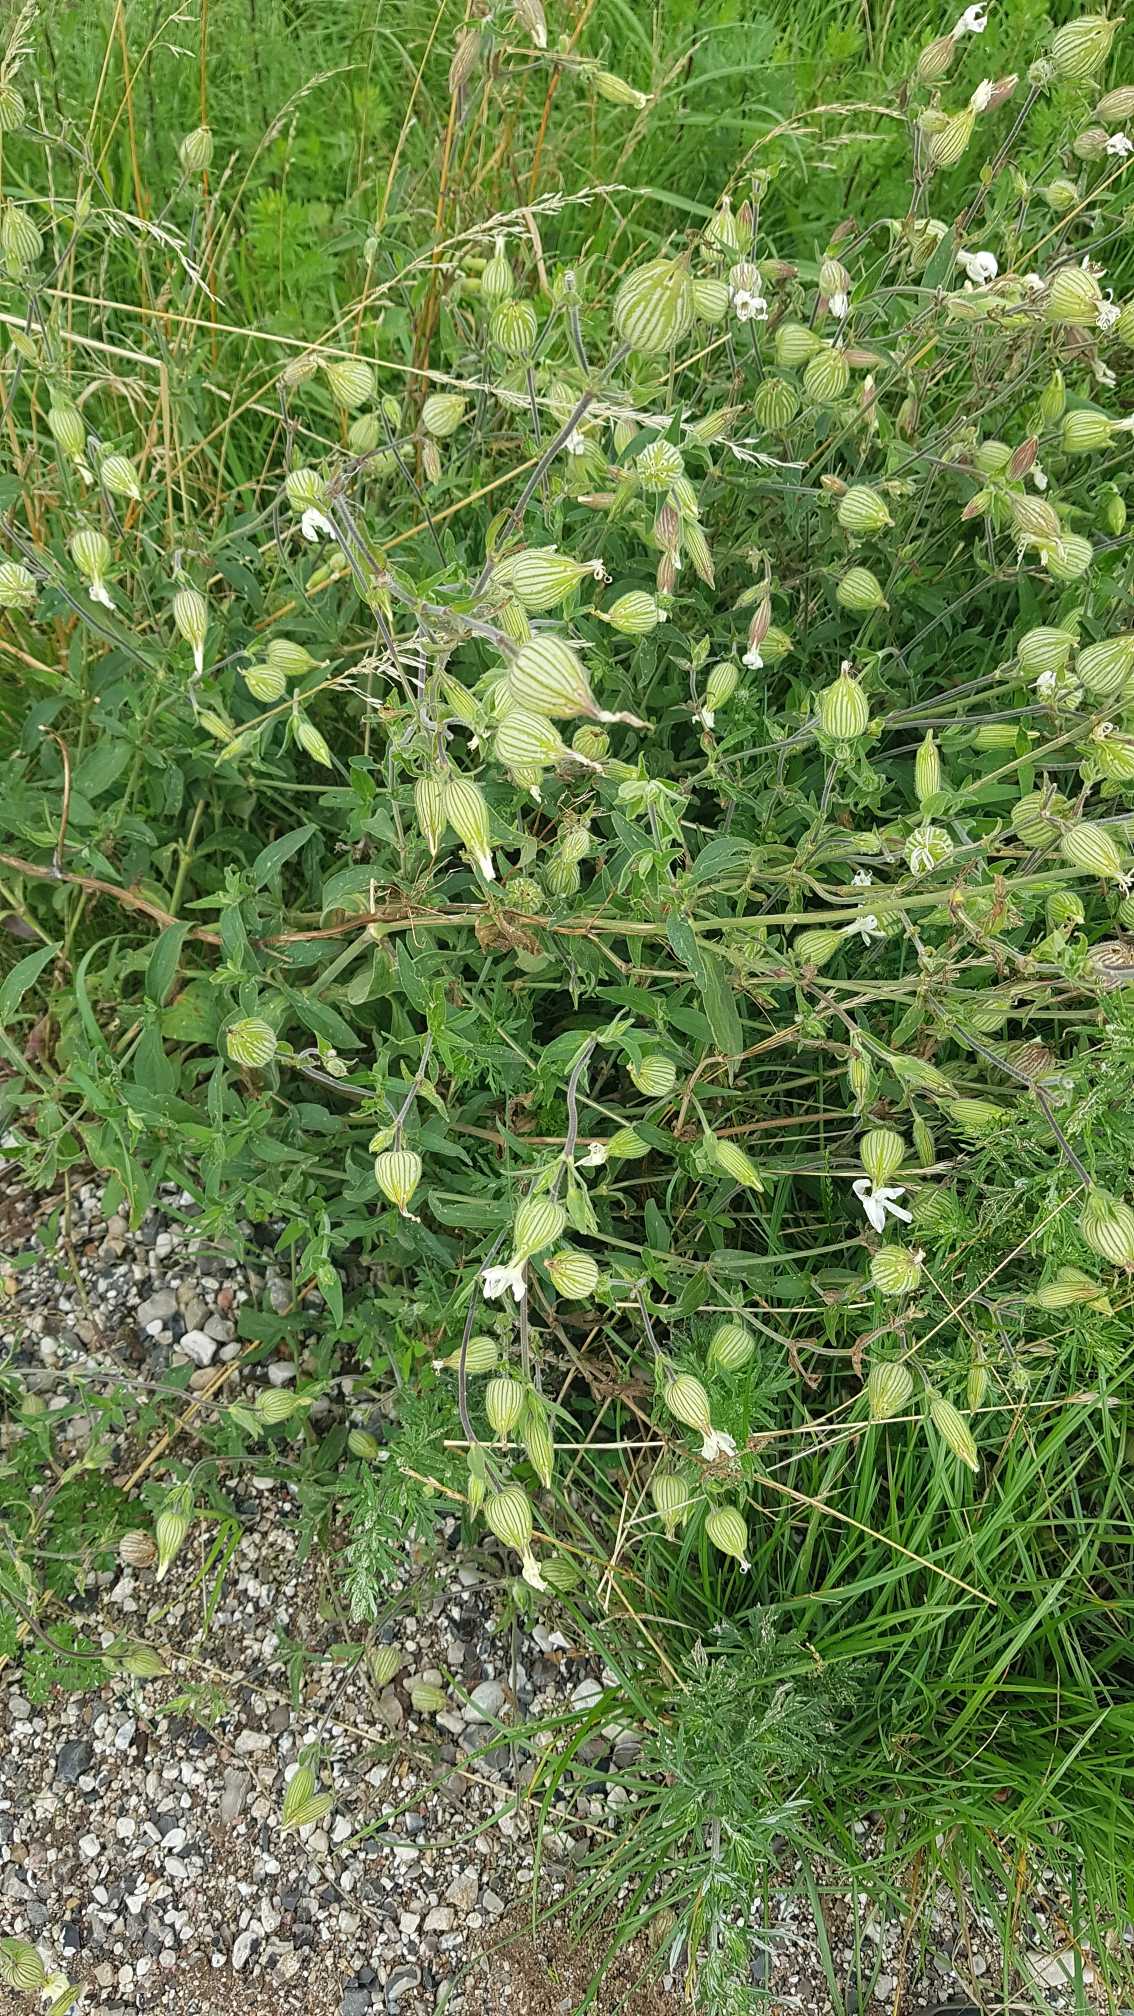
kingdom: Plantae
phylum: Tracheophyta
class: Magnoliopsida
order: Caryophyllales
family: Caryophyllaceae
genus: Silene
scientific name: Silene latifolia
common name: Aftenpragtstjerne
